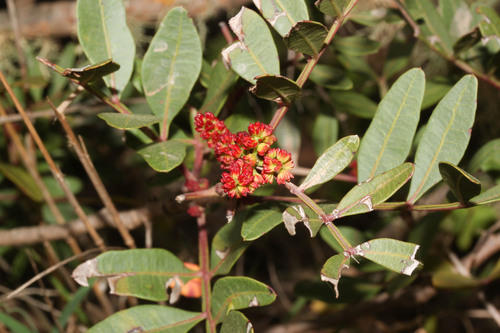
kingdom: Plantae
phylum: Tracheophyta
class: Magnoliopsida
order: Sapindales
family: Anacardiaceae
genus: Pistacia
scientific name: Pistacia lentiscus
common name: Lentisk
